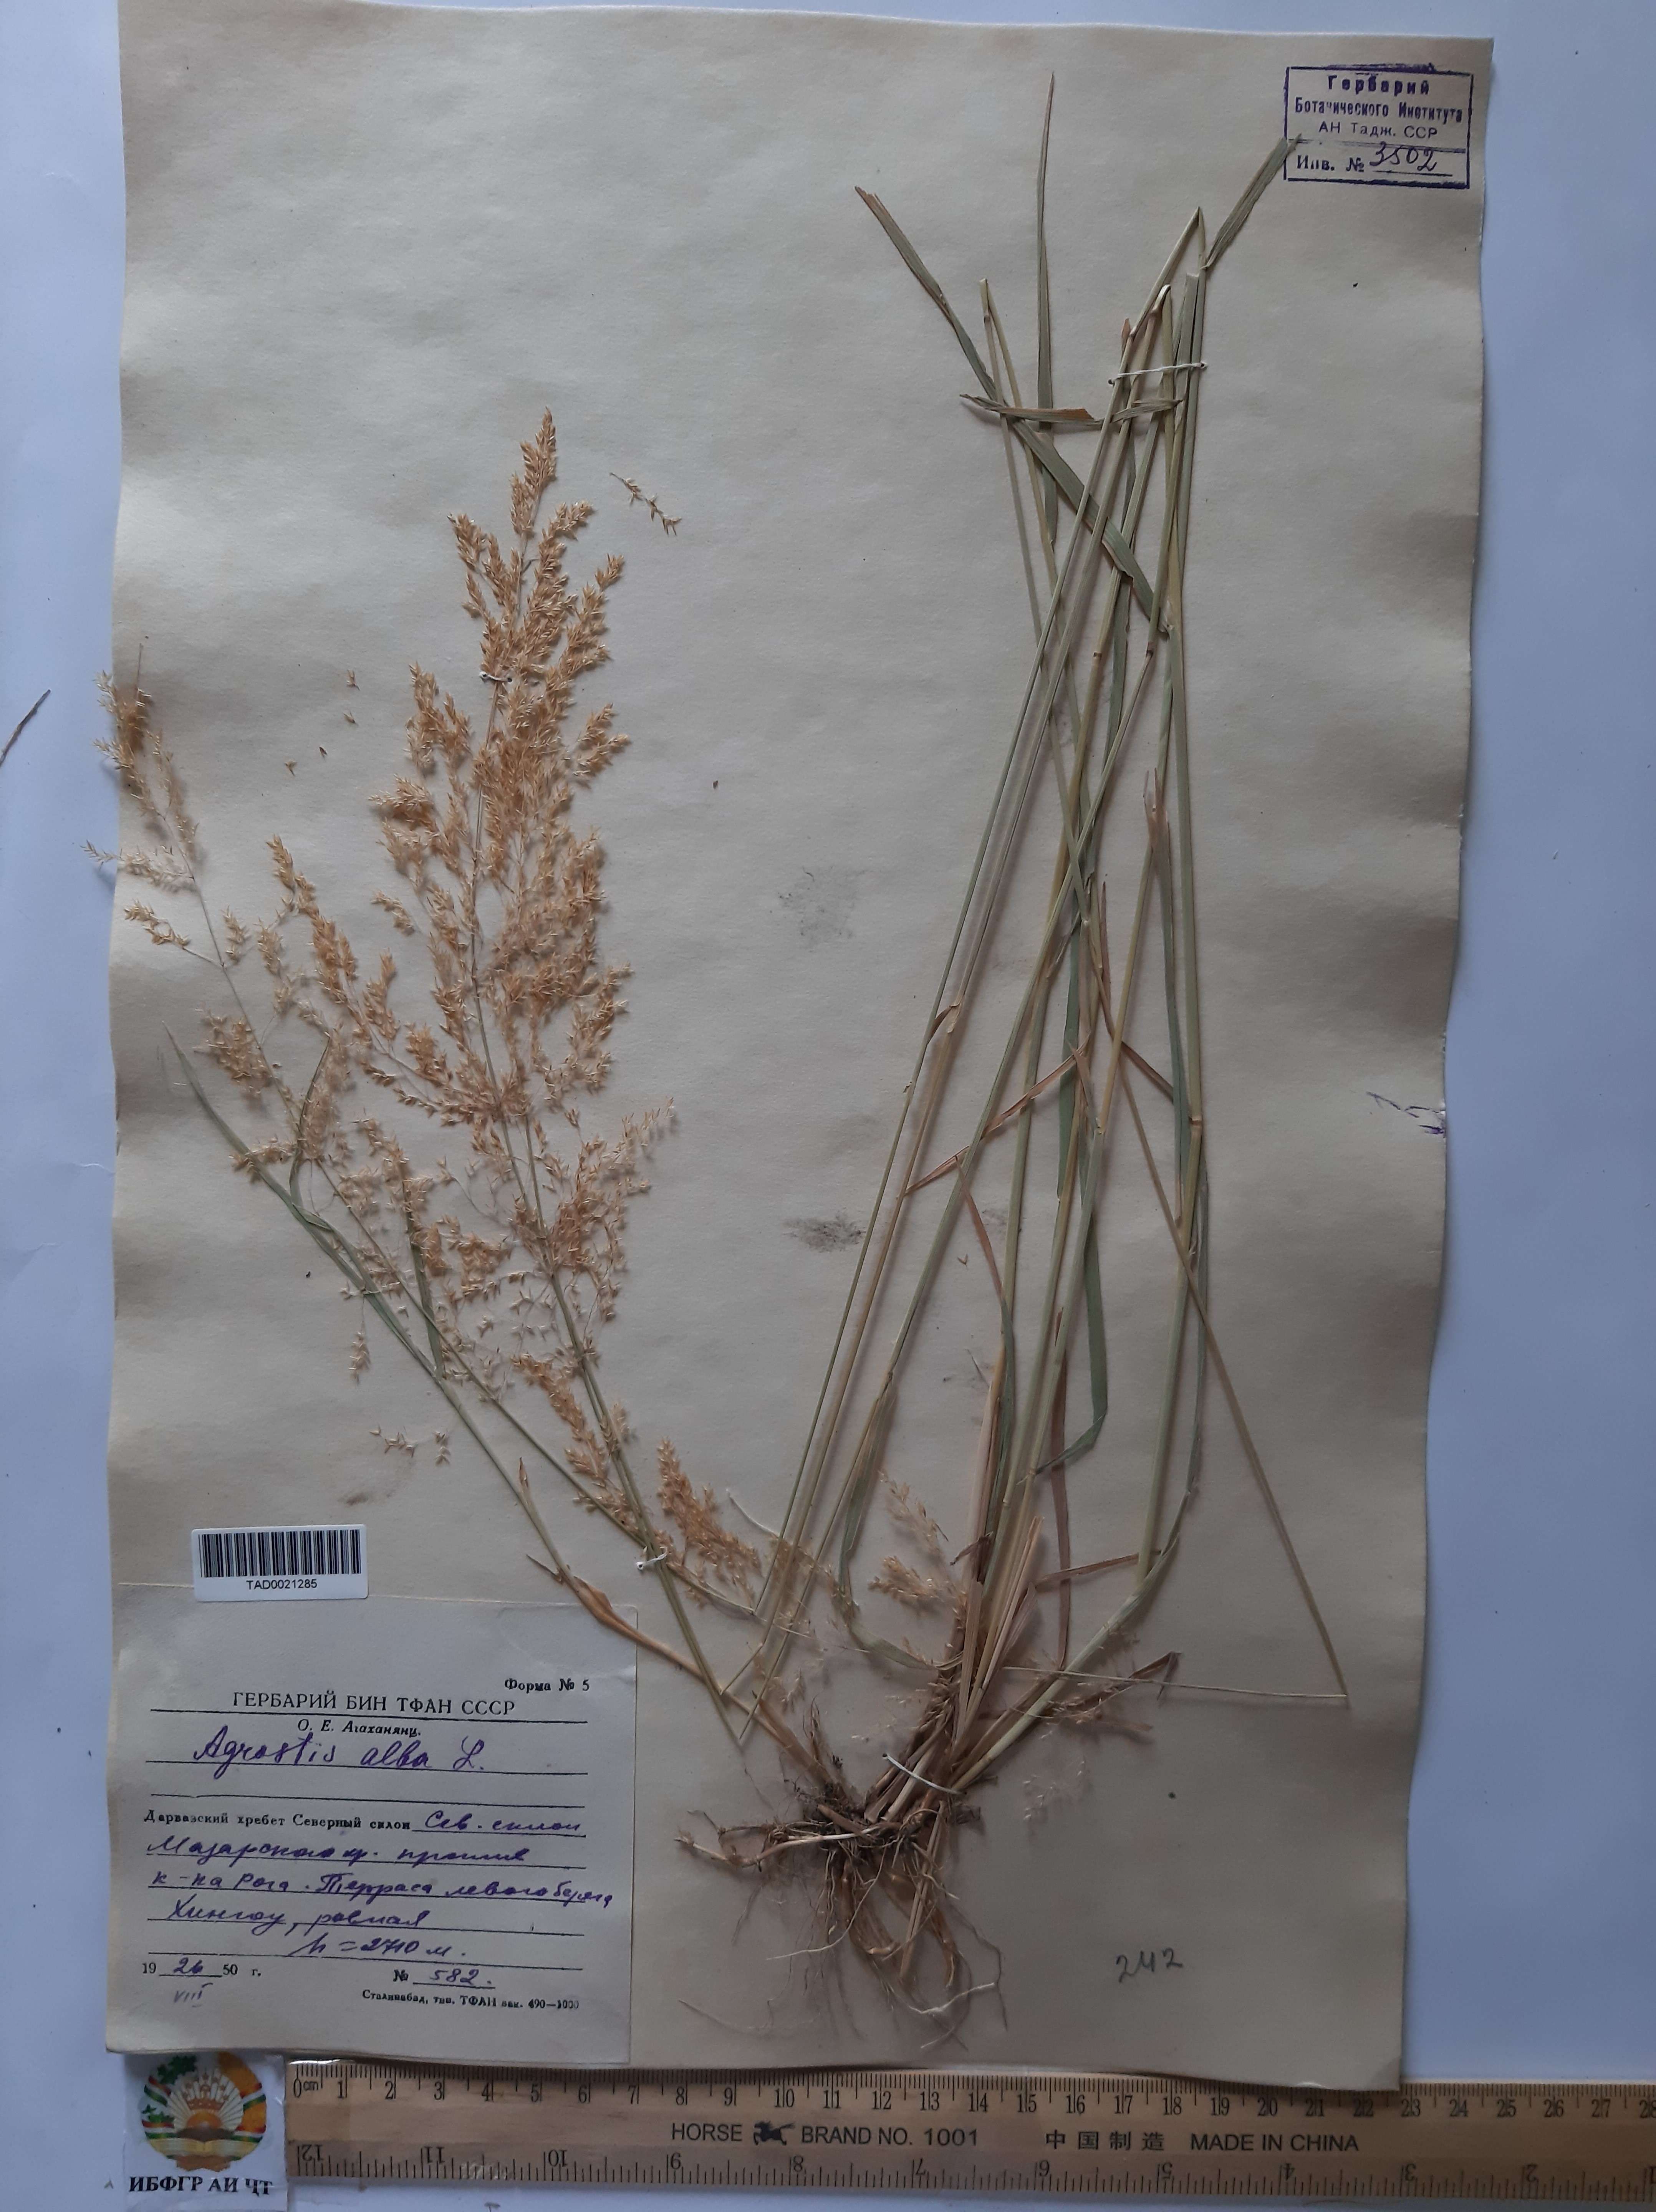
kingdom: Plantae
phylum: Tracheophyta
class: Liliopsida
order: Poales
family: Poaceae
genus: Poa
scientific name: Poa nemoralis
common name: Wood bluegrass
